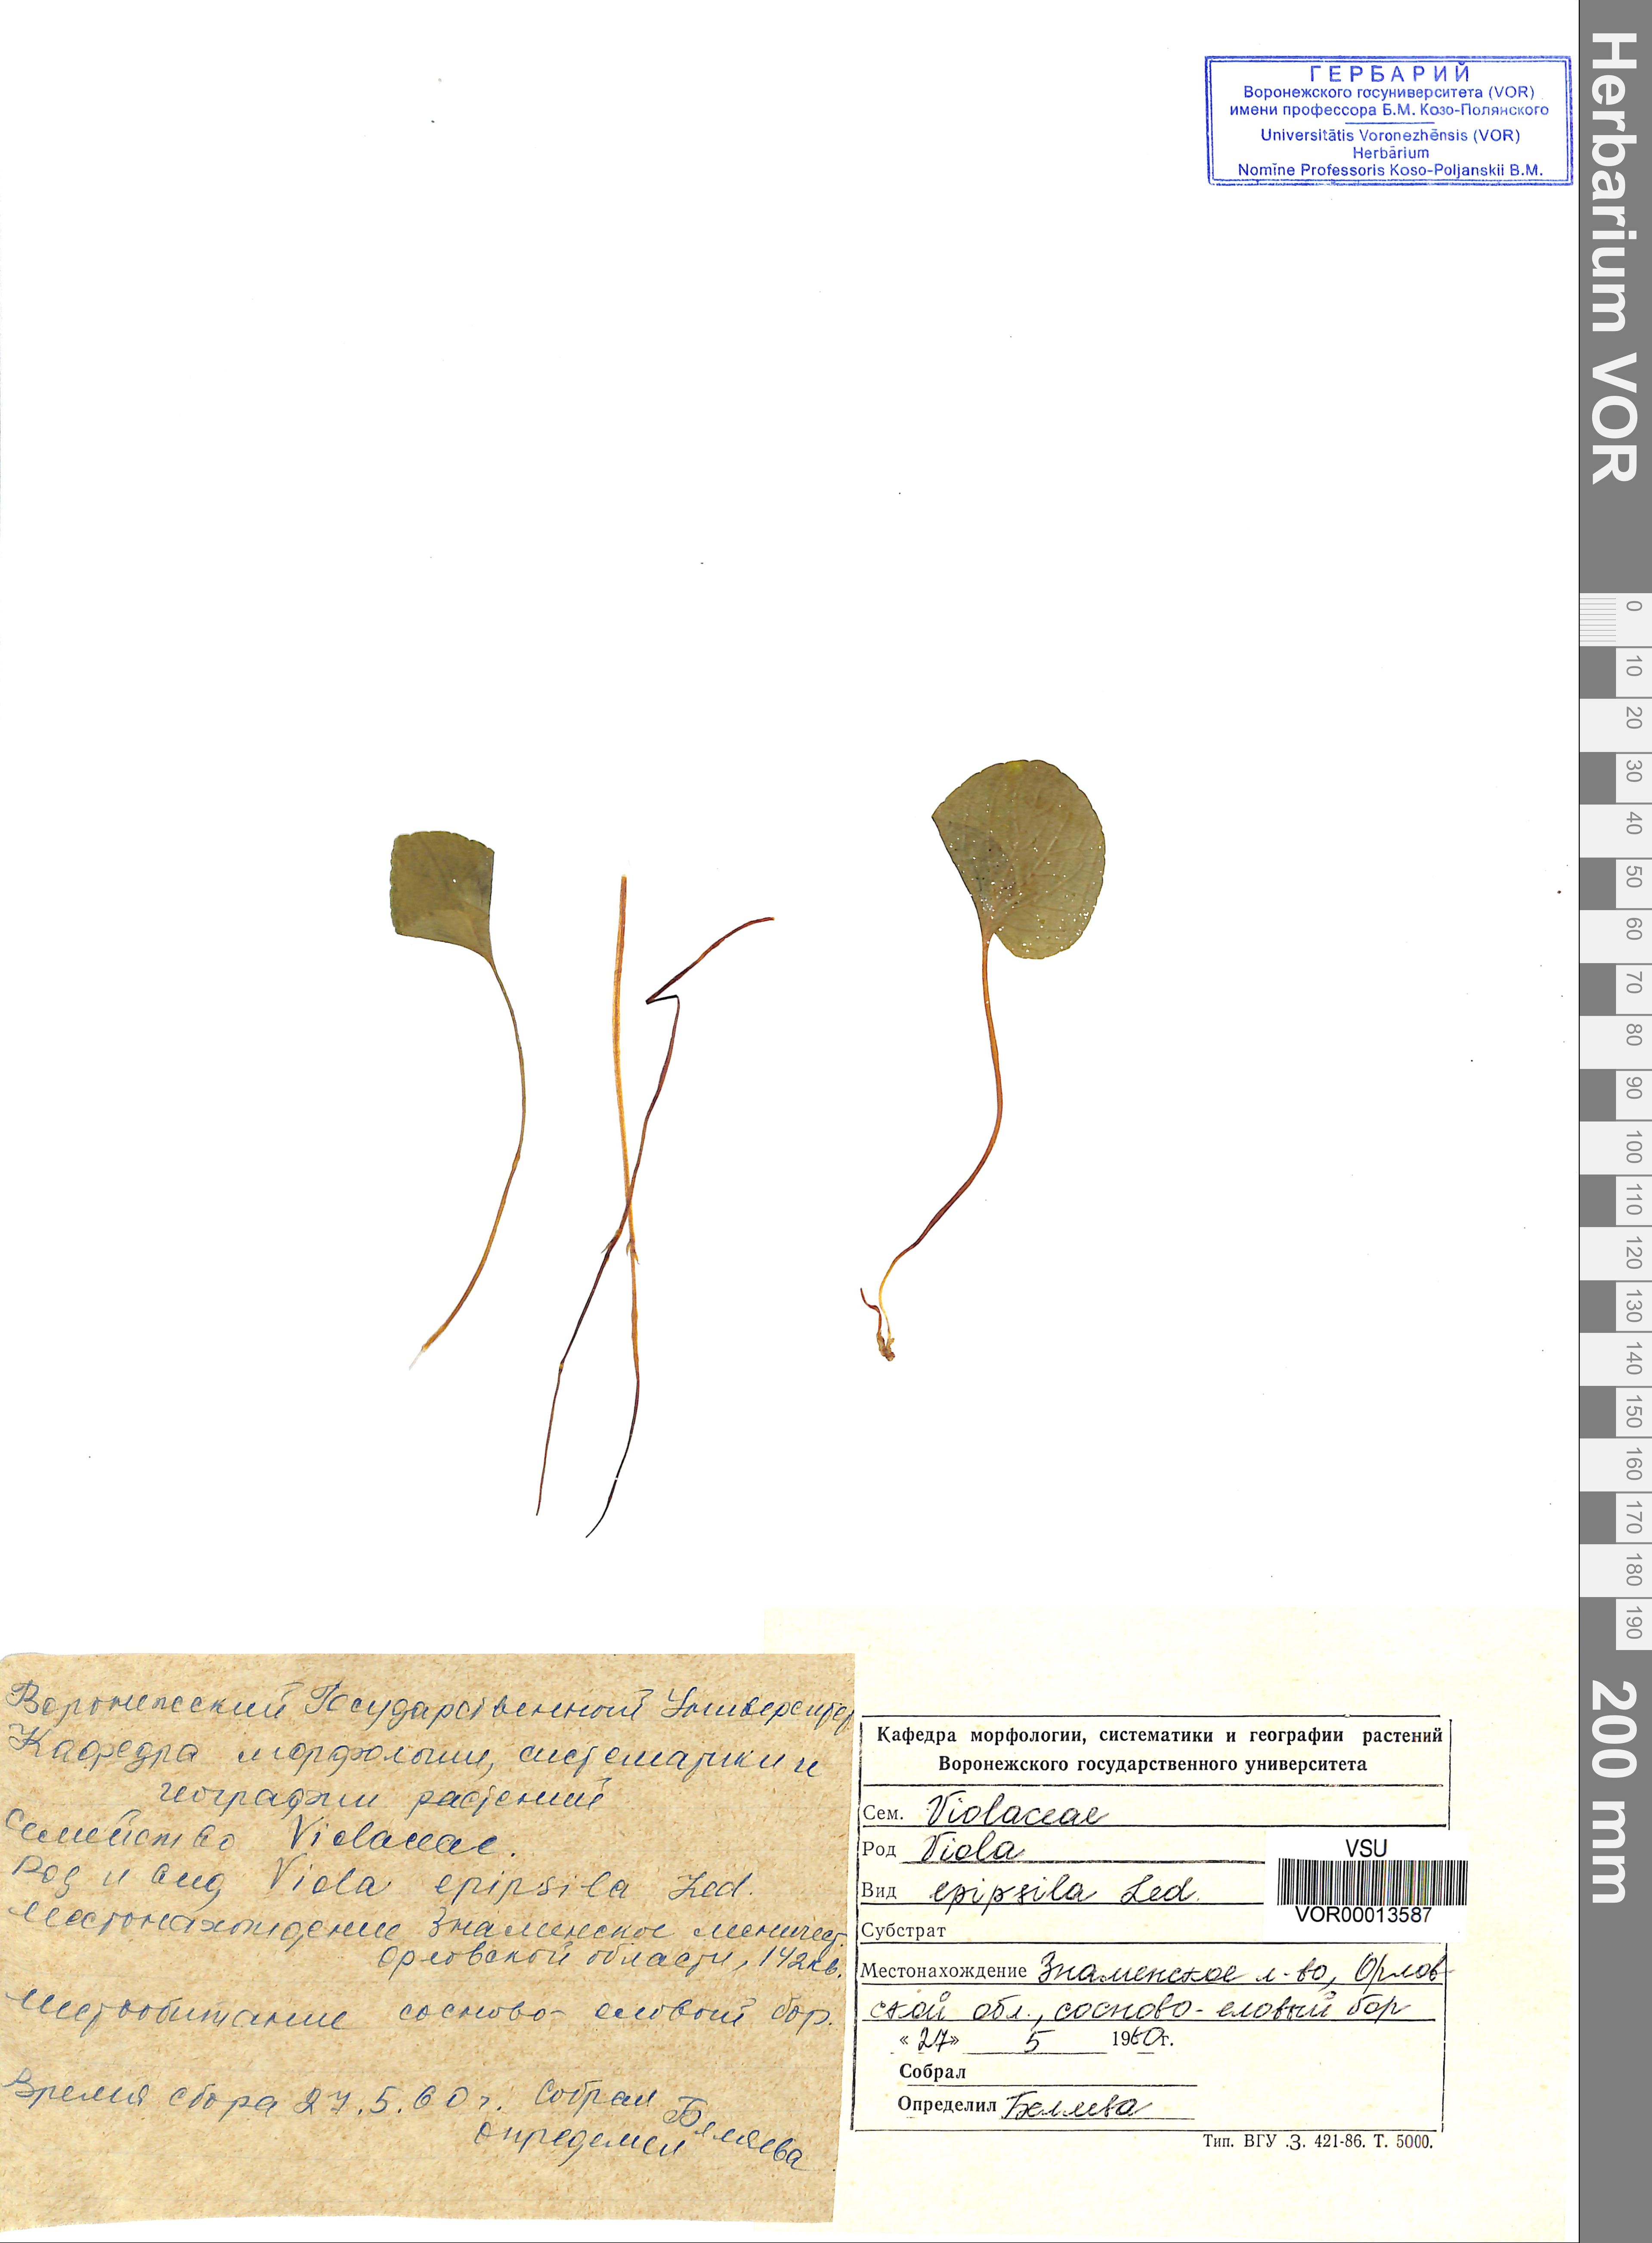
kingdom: Plantae
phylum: Tracheophyta
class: Magnoliopsida
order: Malpighiales
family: Violaceae
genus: Viola
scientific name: Viola epipsila
